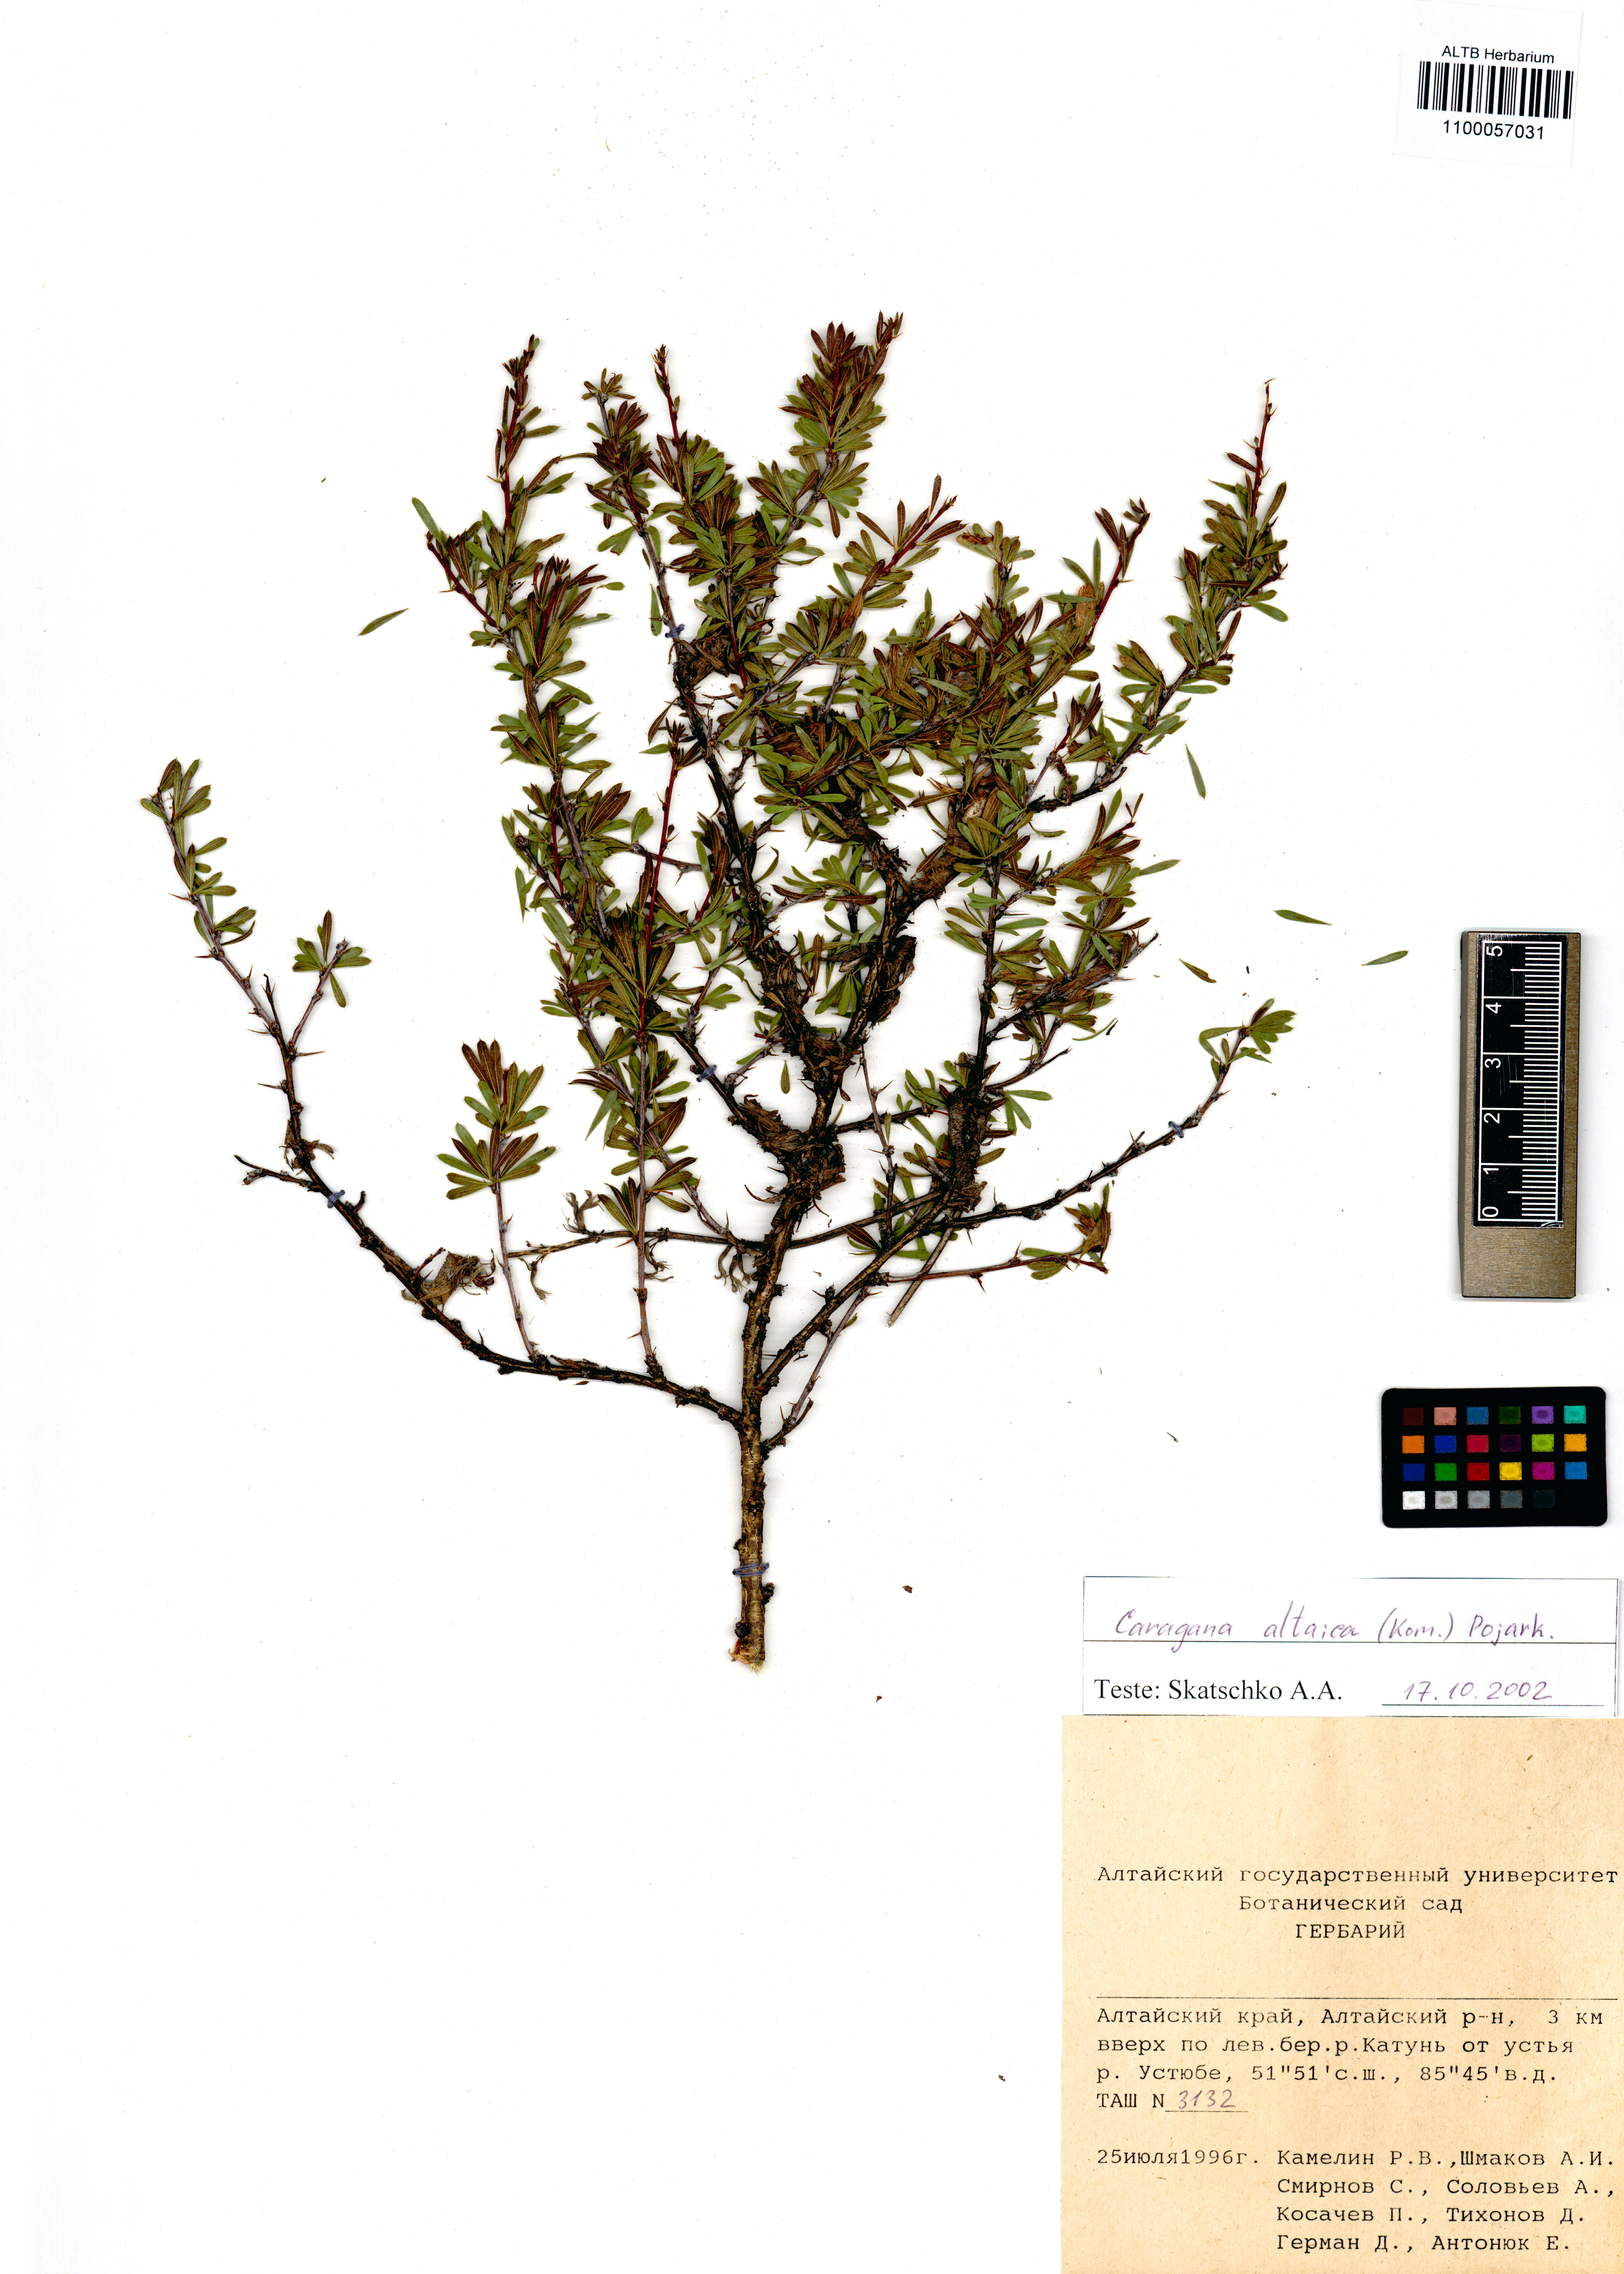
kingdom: Plantae
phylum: Tracheophyta
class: Magnoliopsida
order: Fabales
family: Fabaceae
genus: Caragana
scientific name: Caragana pygmaea
